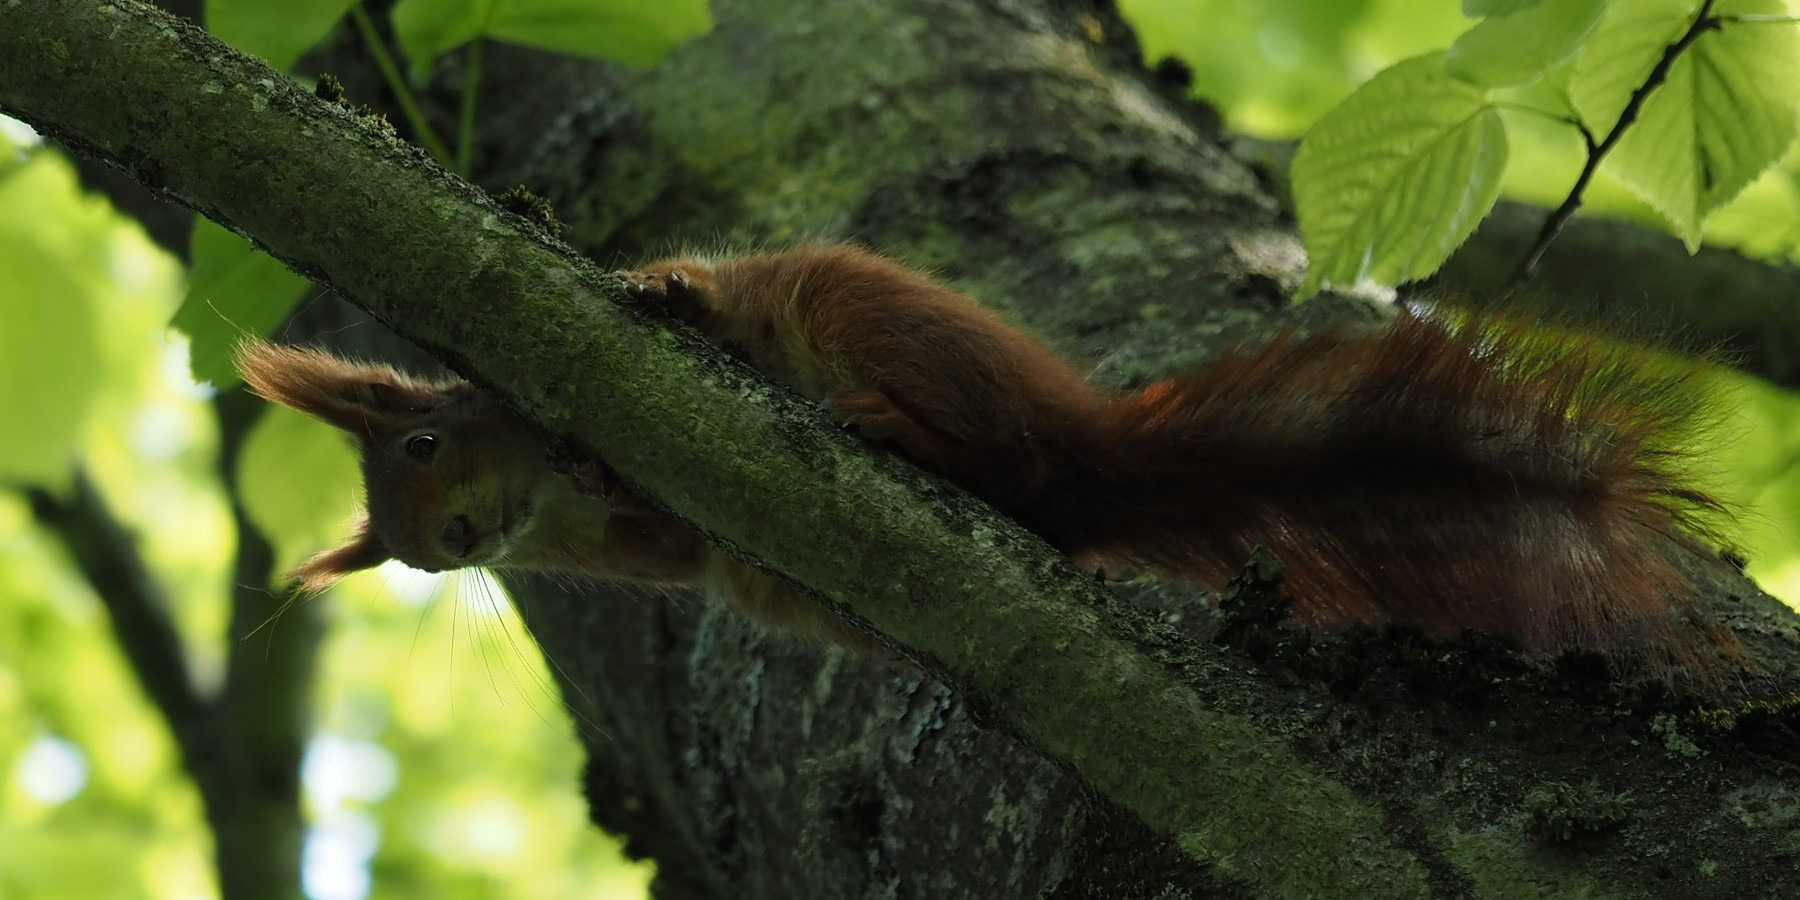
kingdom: Animalia
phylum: Chordata
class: Mammalia
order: Rodentia
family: Sciuridae
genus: Sciurus
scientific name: Sciurus vulgaris
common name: Egern
